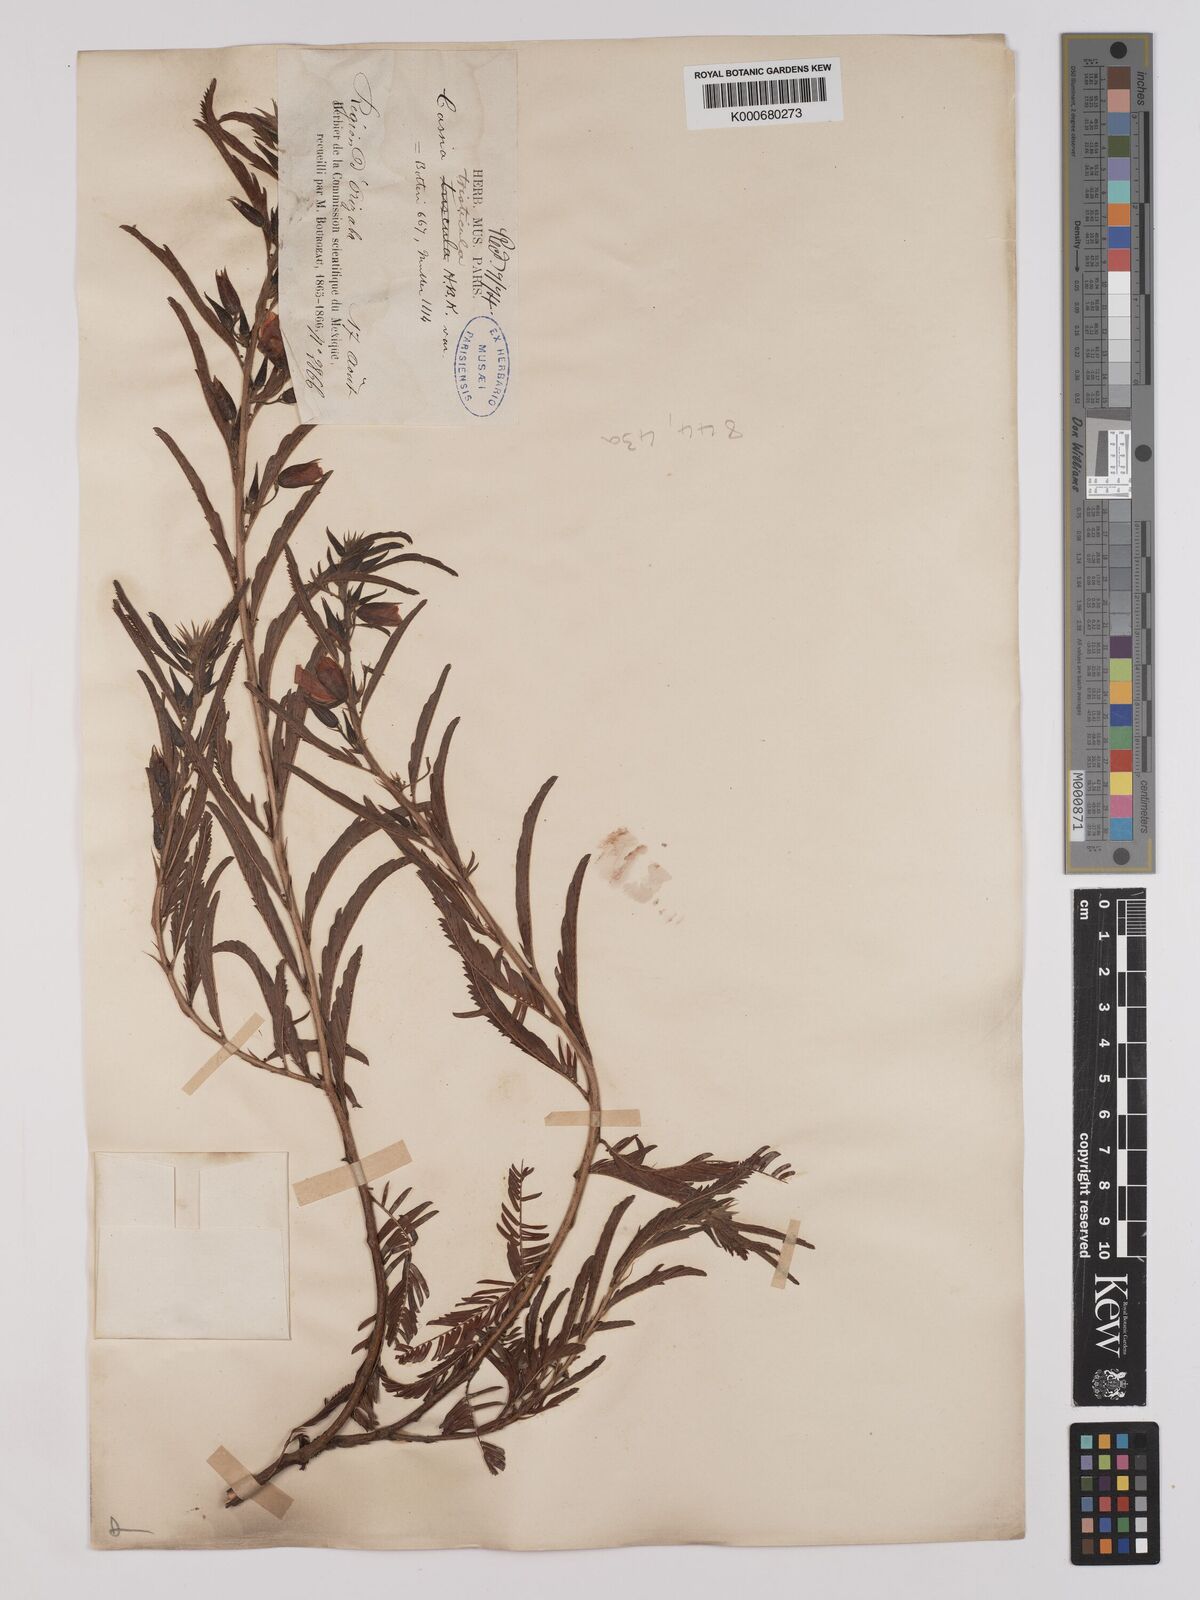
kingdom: Plantae
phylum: Tracheophyta
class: Magnoliopsida
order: Fabales
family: Fabaceae
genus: Chamaecrista
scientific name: Chamaecrista glandulosa
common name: Wild peas
